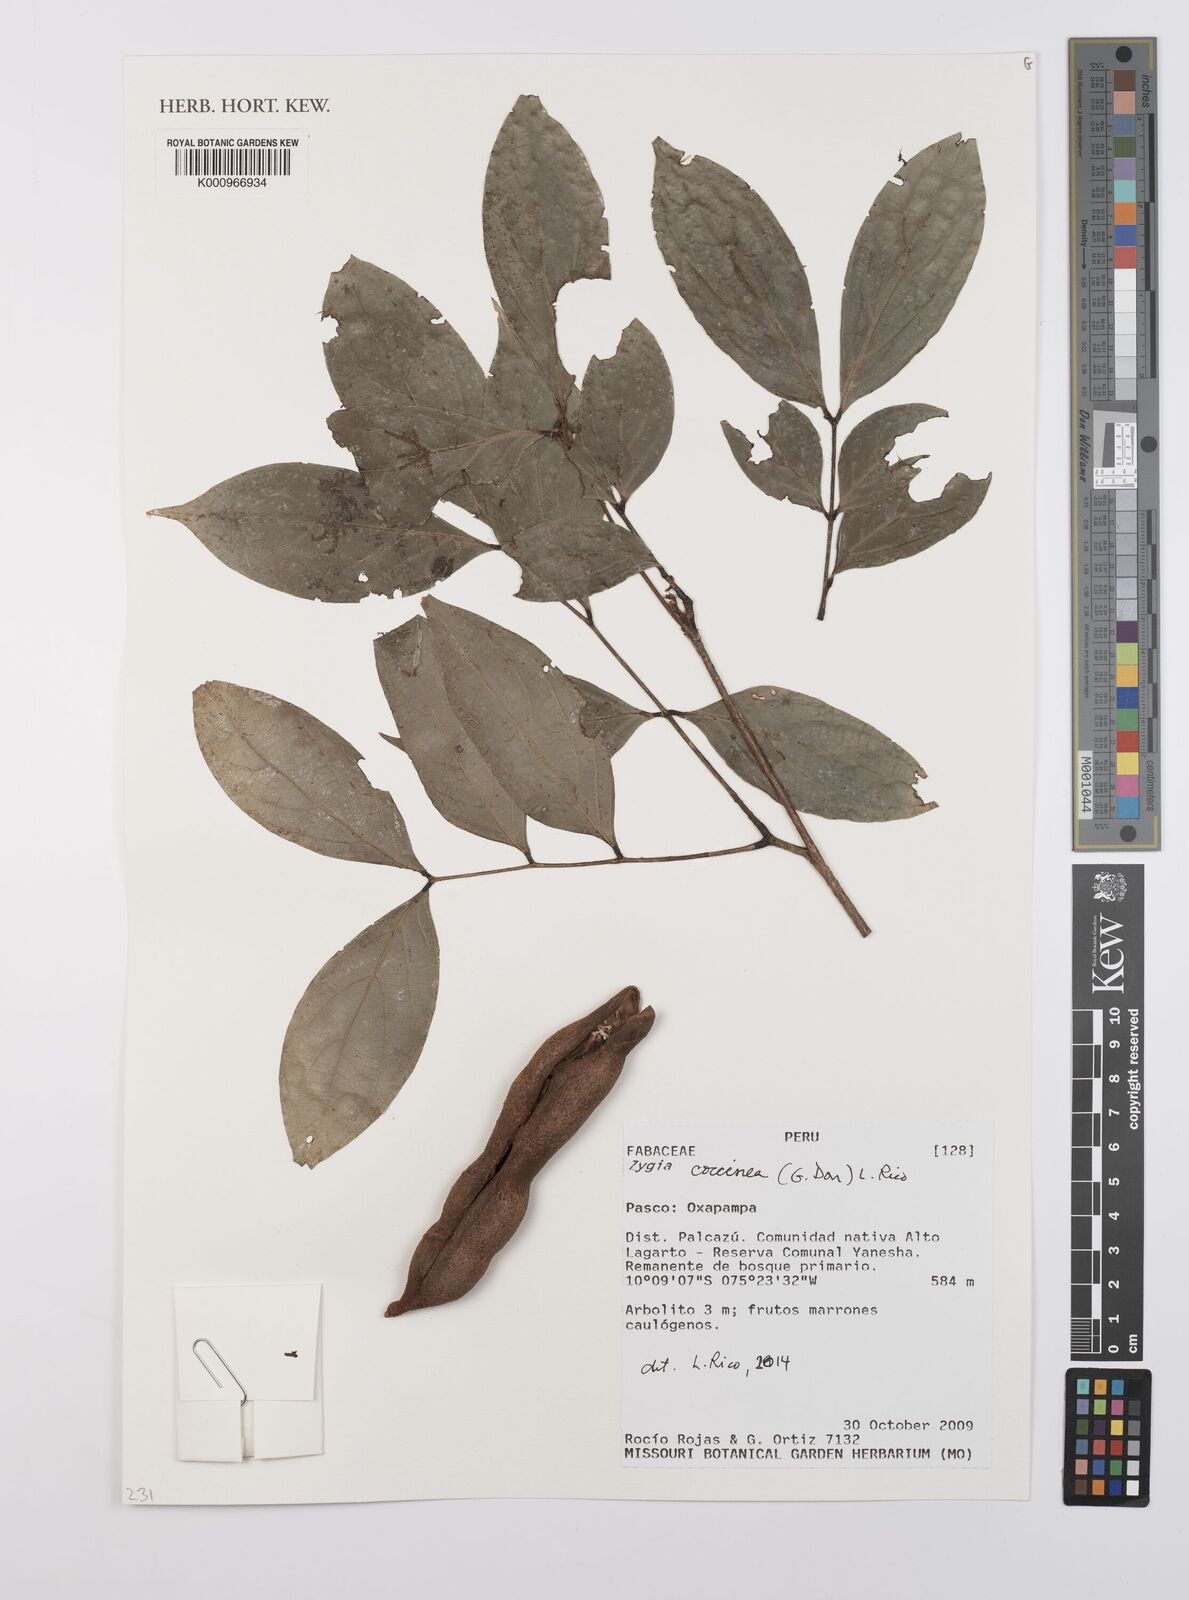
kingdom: Plantae
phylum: Tracheophyta
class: Magnoliopsida
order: Fabales
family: Fabaceae
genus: Zygia
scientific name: Zygia coccinea
